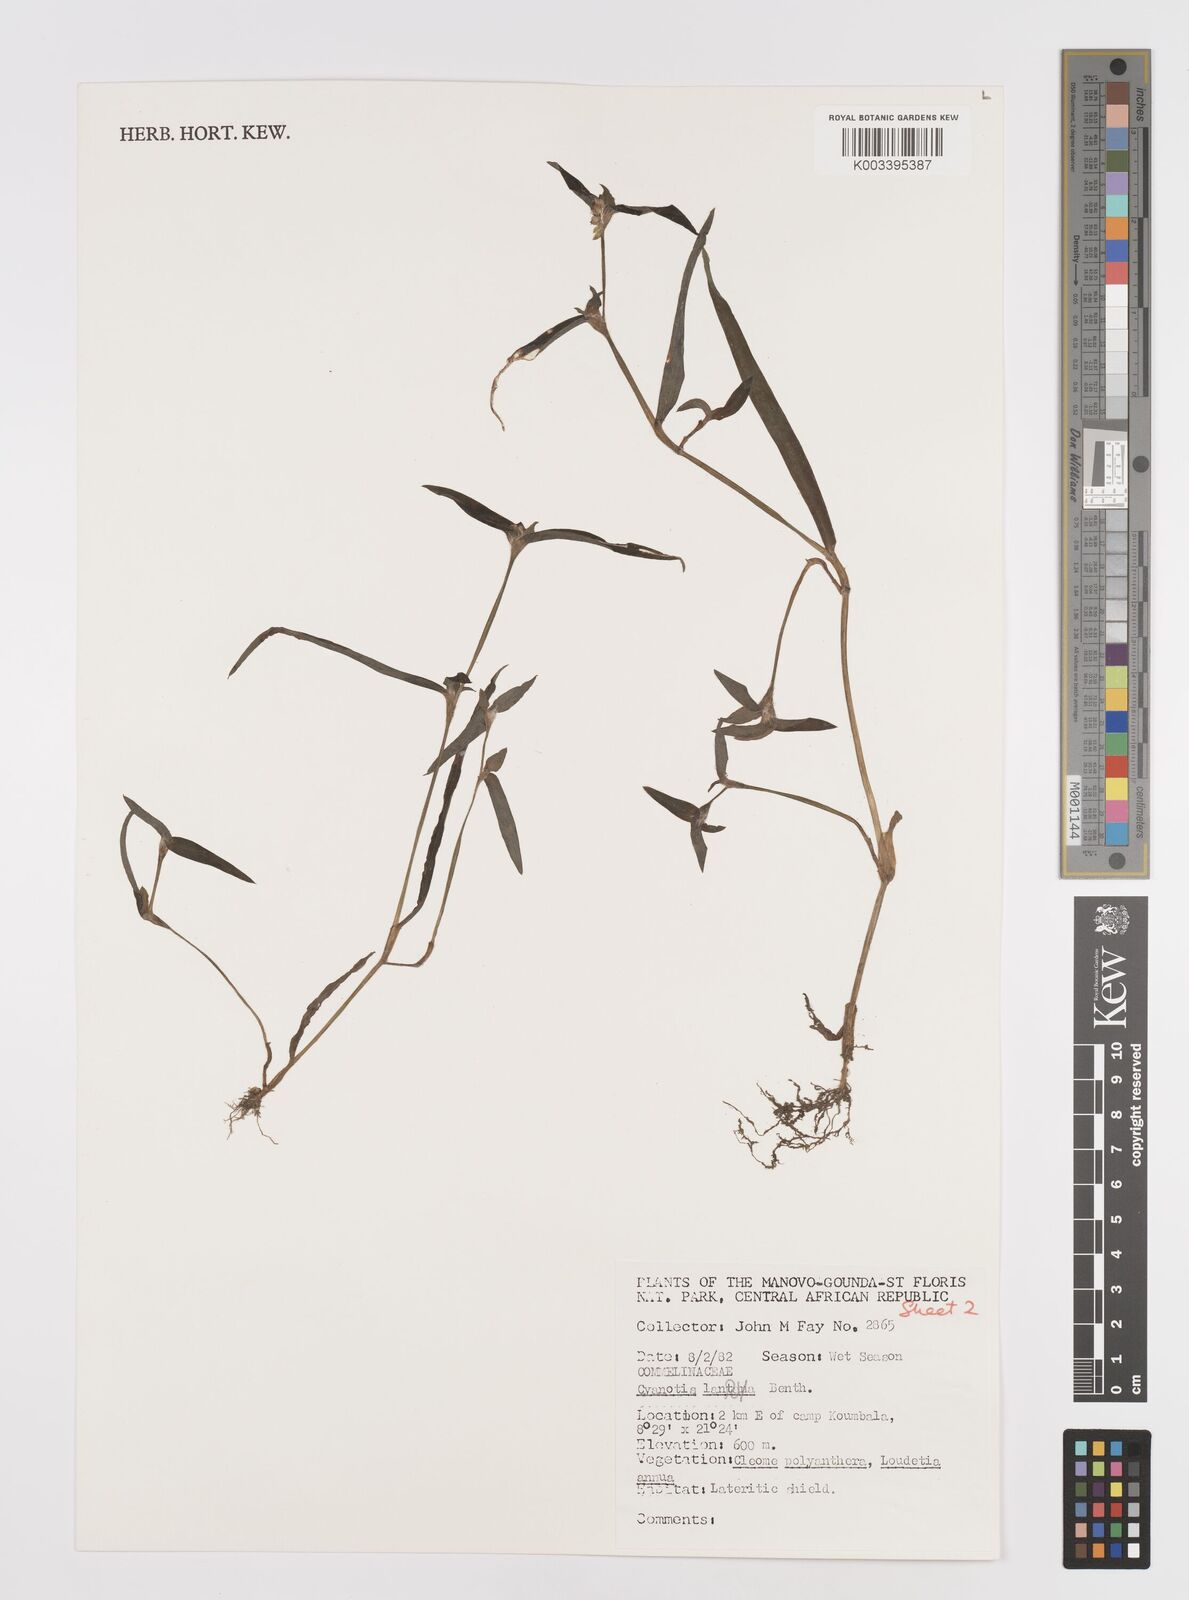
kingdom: Plantae
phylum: Tracheophyta
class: Liliopsida
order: Commelinales
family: Commelinaceae
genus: Cyanotis
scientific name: Cyanotis lanata
